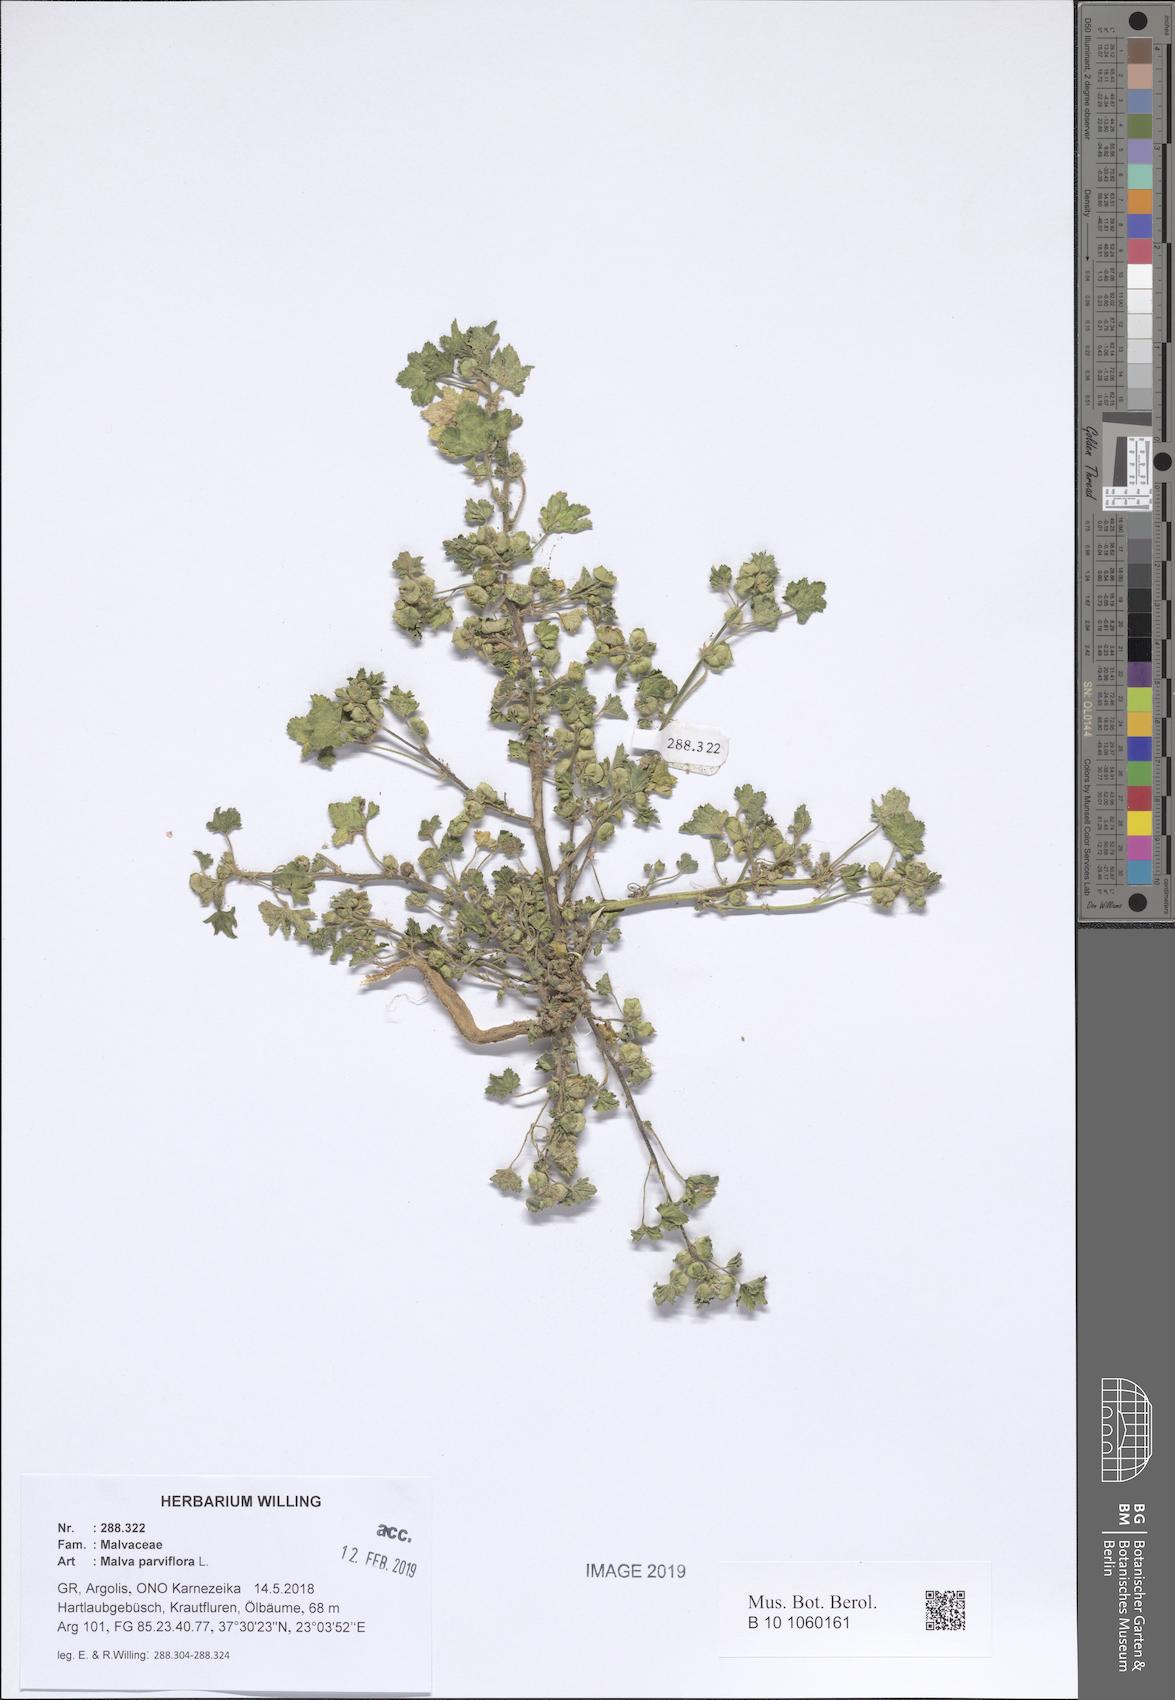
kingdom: Plantae
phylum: Tracheophyta
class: Magnoliopsida
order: Malvales
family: Malvaceae
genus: Malva
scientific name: Malva parviflora
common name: Least mallow
